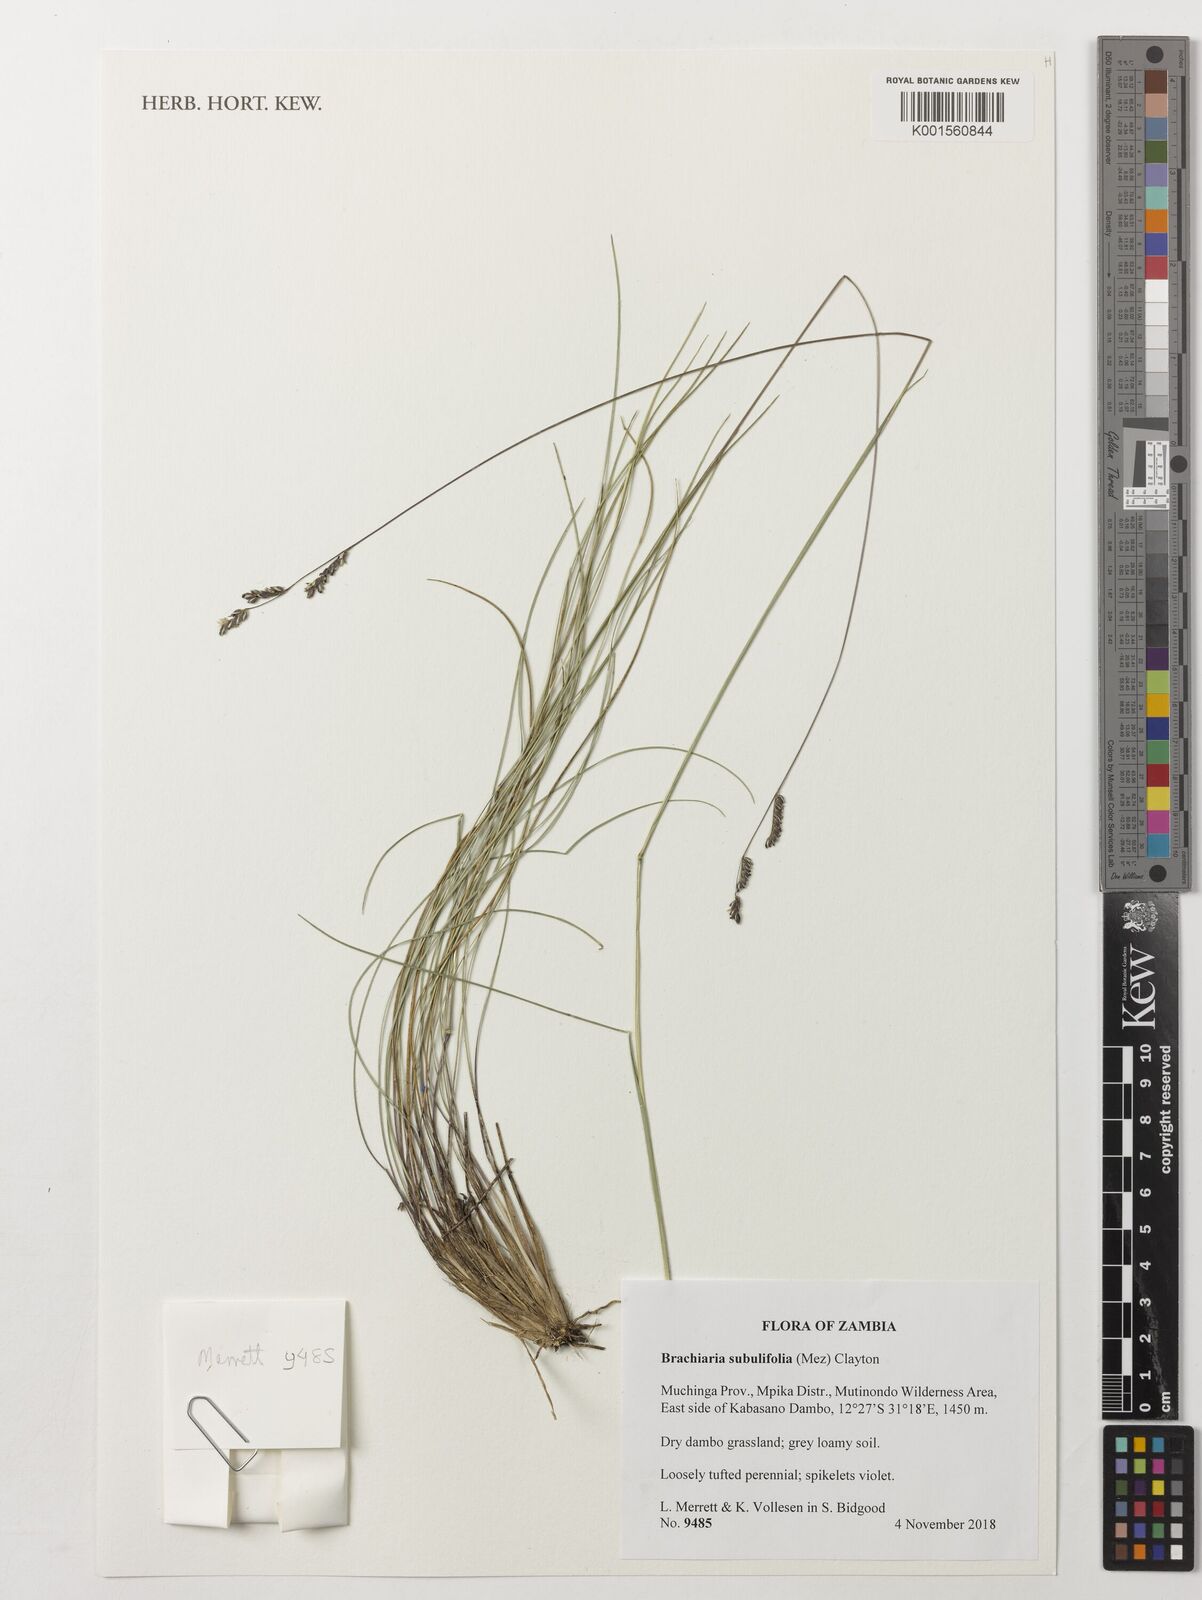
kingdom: Plantae
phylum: Tracheophyta
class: Liliopsida
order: Poales
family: Poaceae
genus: Urochloa
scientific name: Urochloa subulifolia
